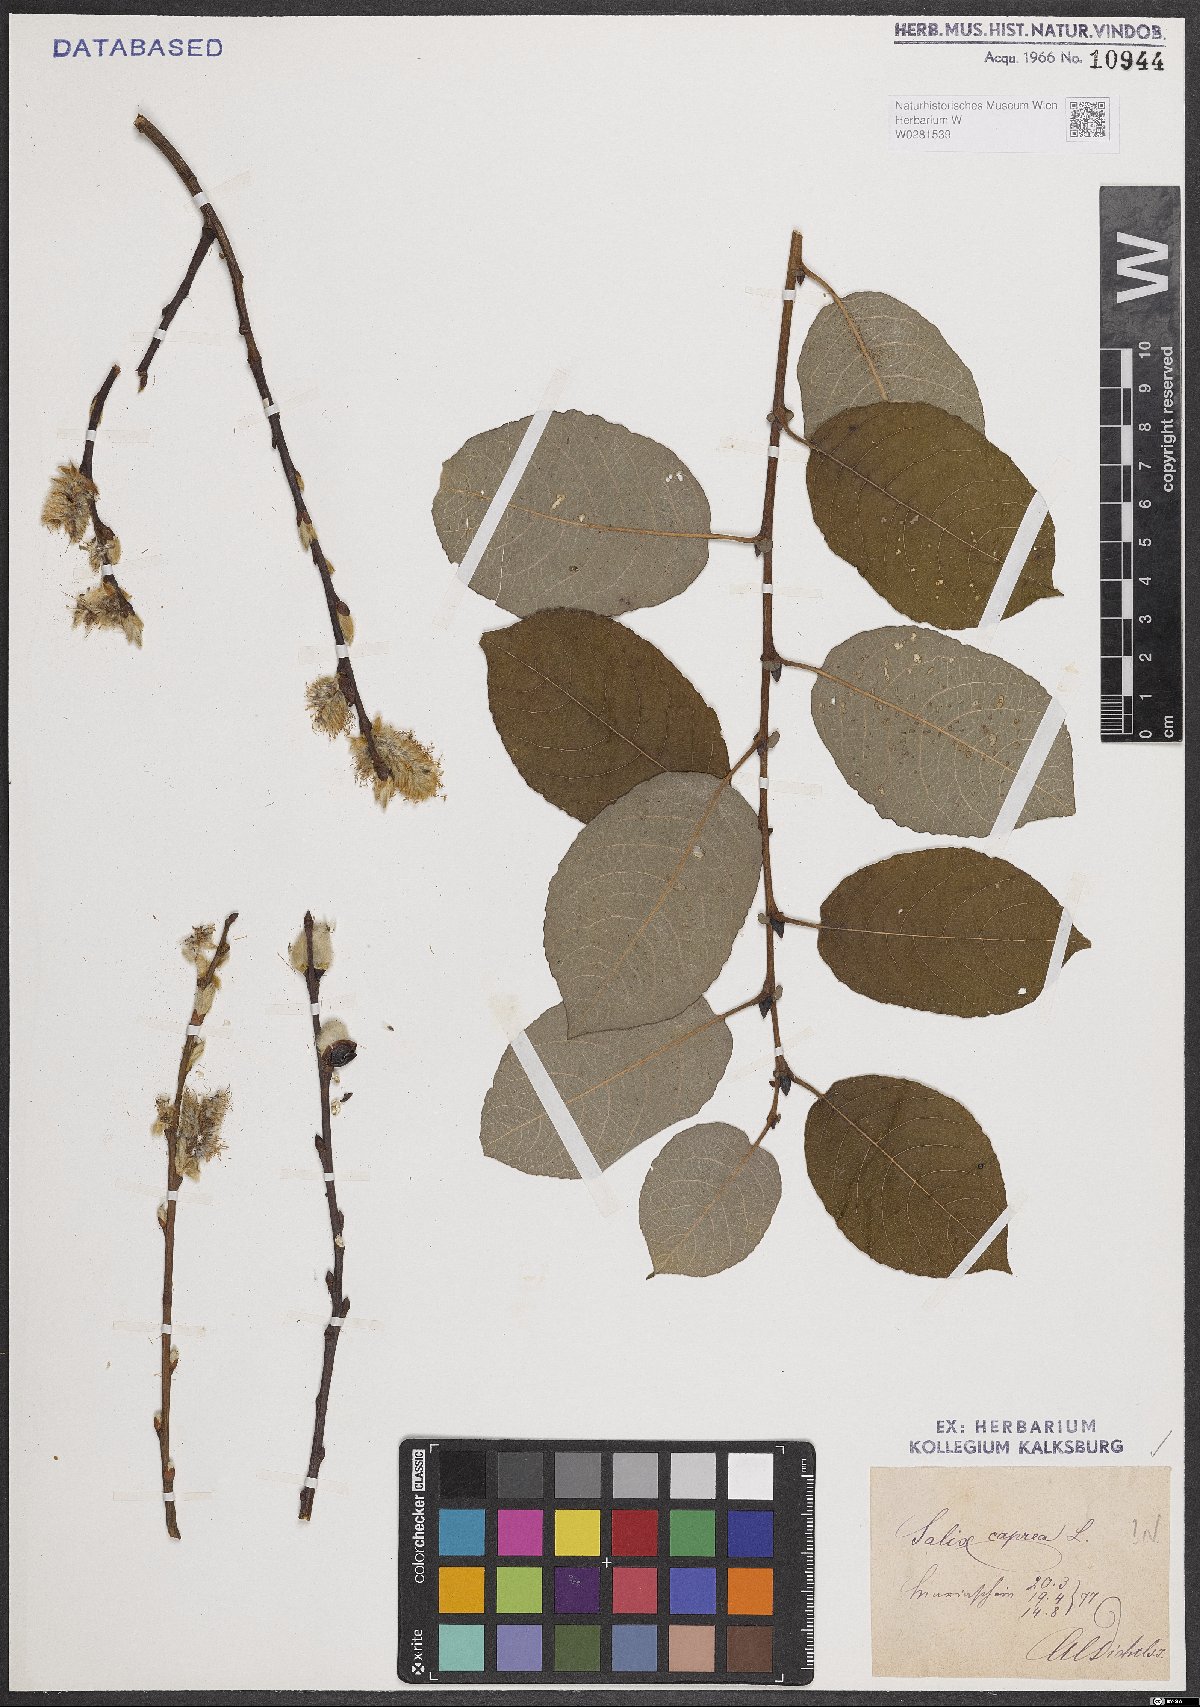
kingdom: Plantae
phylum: Tracheophyta
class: Magnoliopsida
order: Malpighiales
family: Salicaceae
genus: Salix
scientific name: Salix caprea
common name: Goat willow
